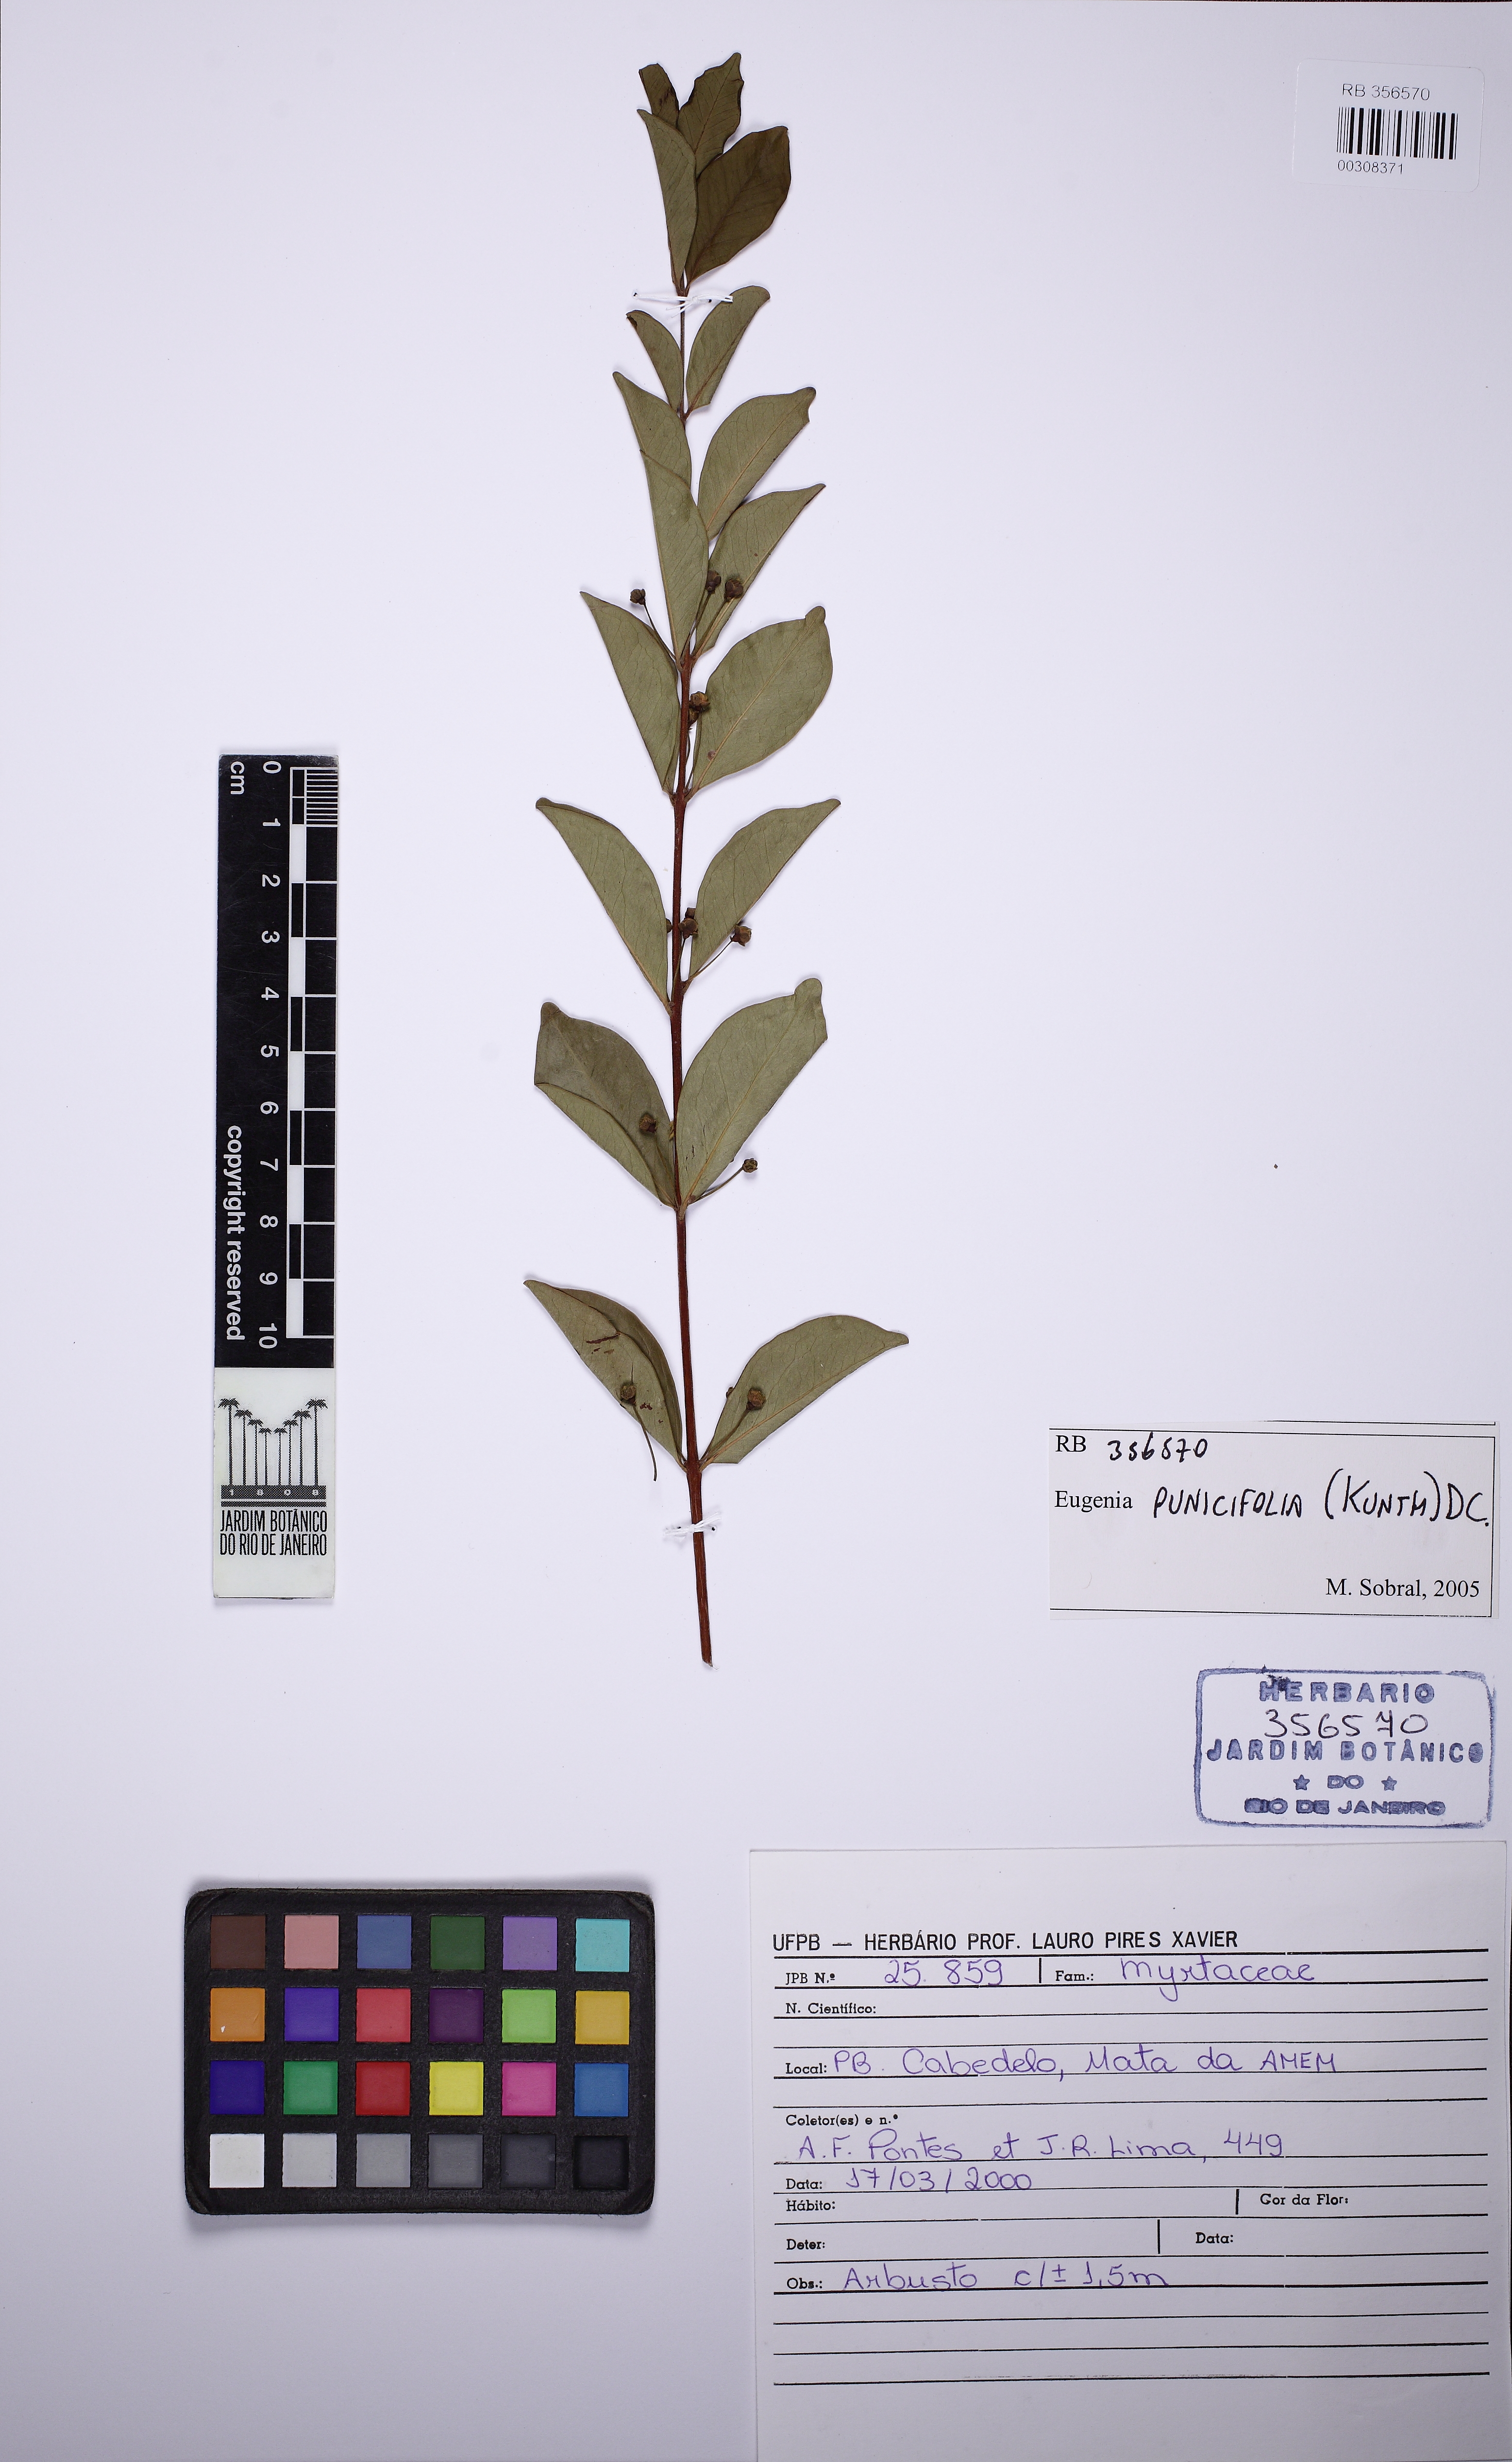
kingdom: Plantae
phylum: Tracheophyta
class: Magnoliopsida
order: Myrtales
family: Myrtaceae
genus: Eugenia
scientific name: Eugenia punicifolia
